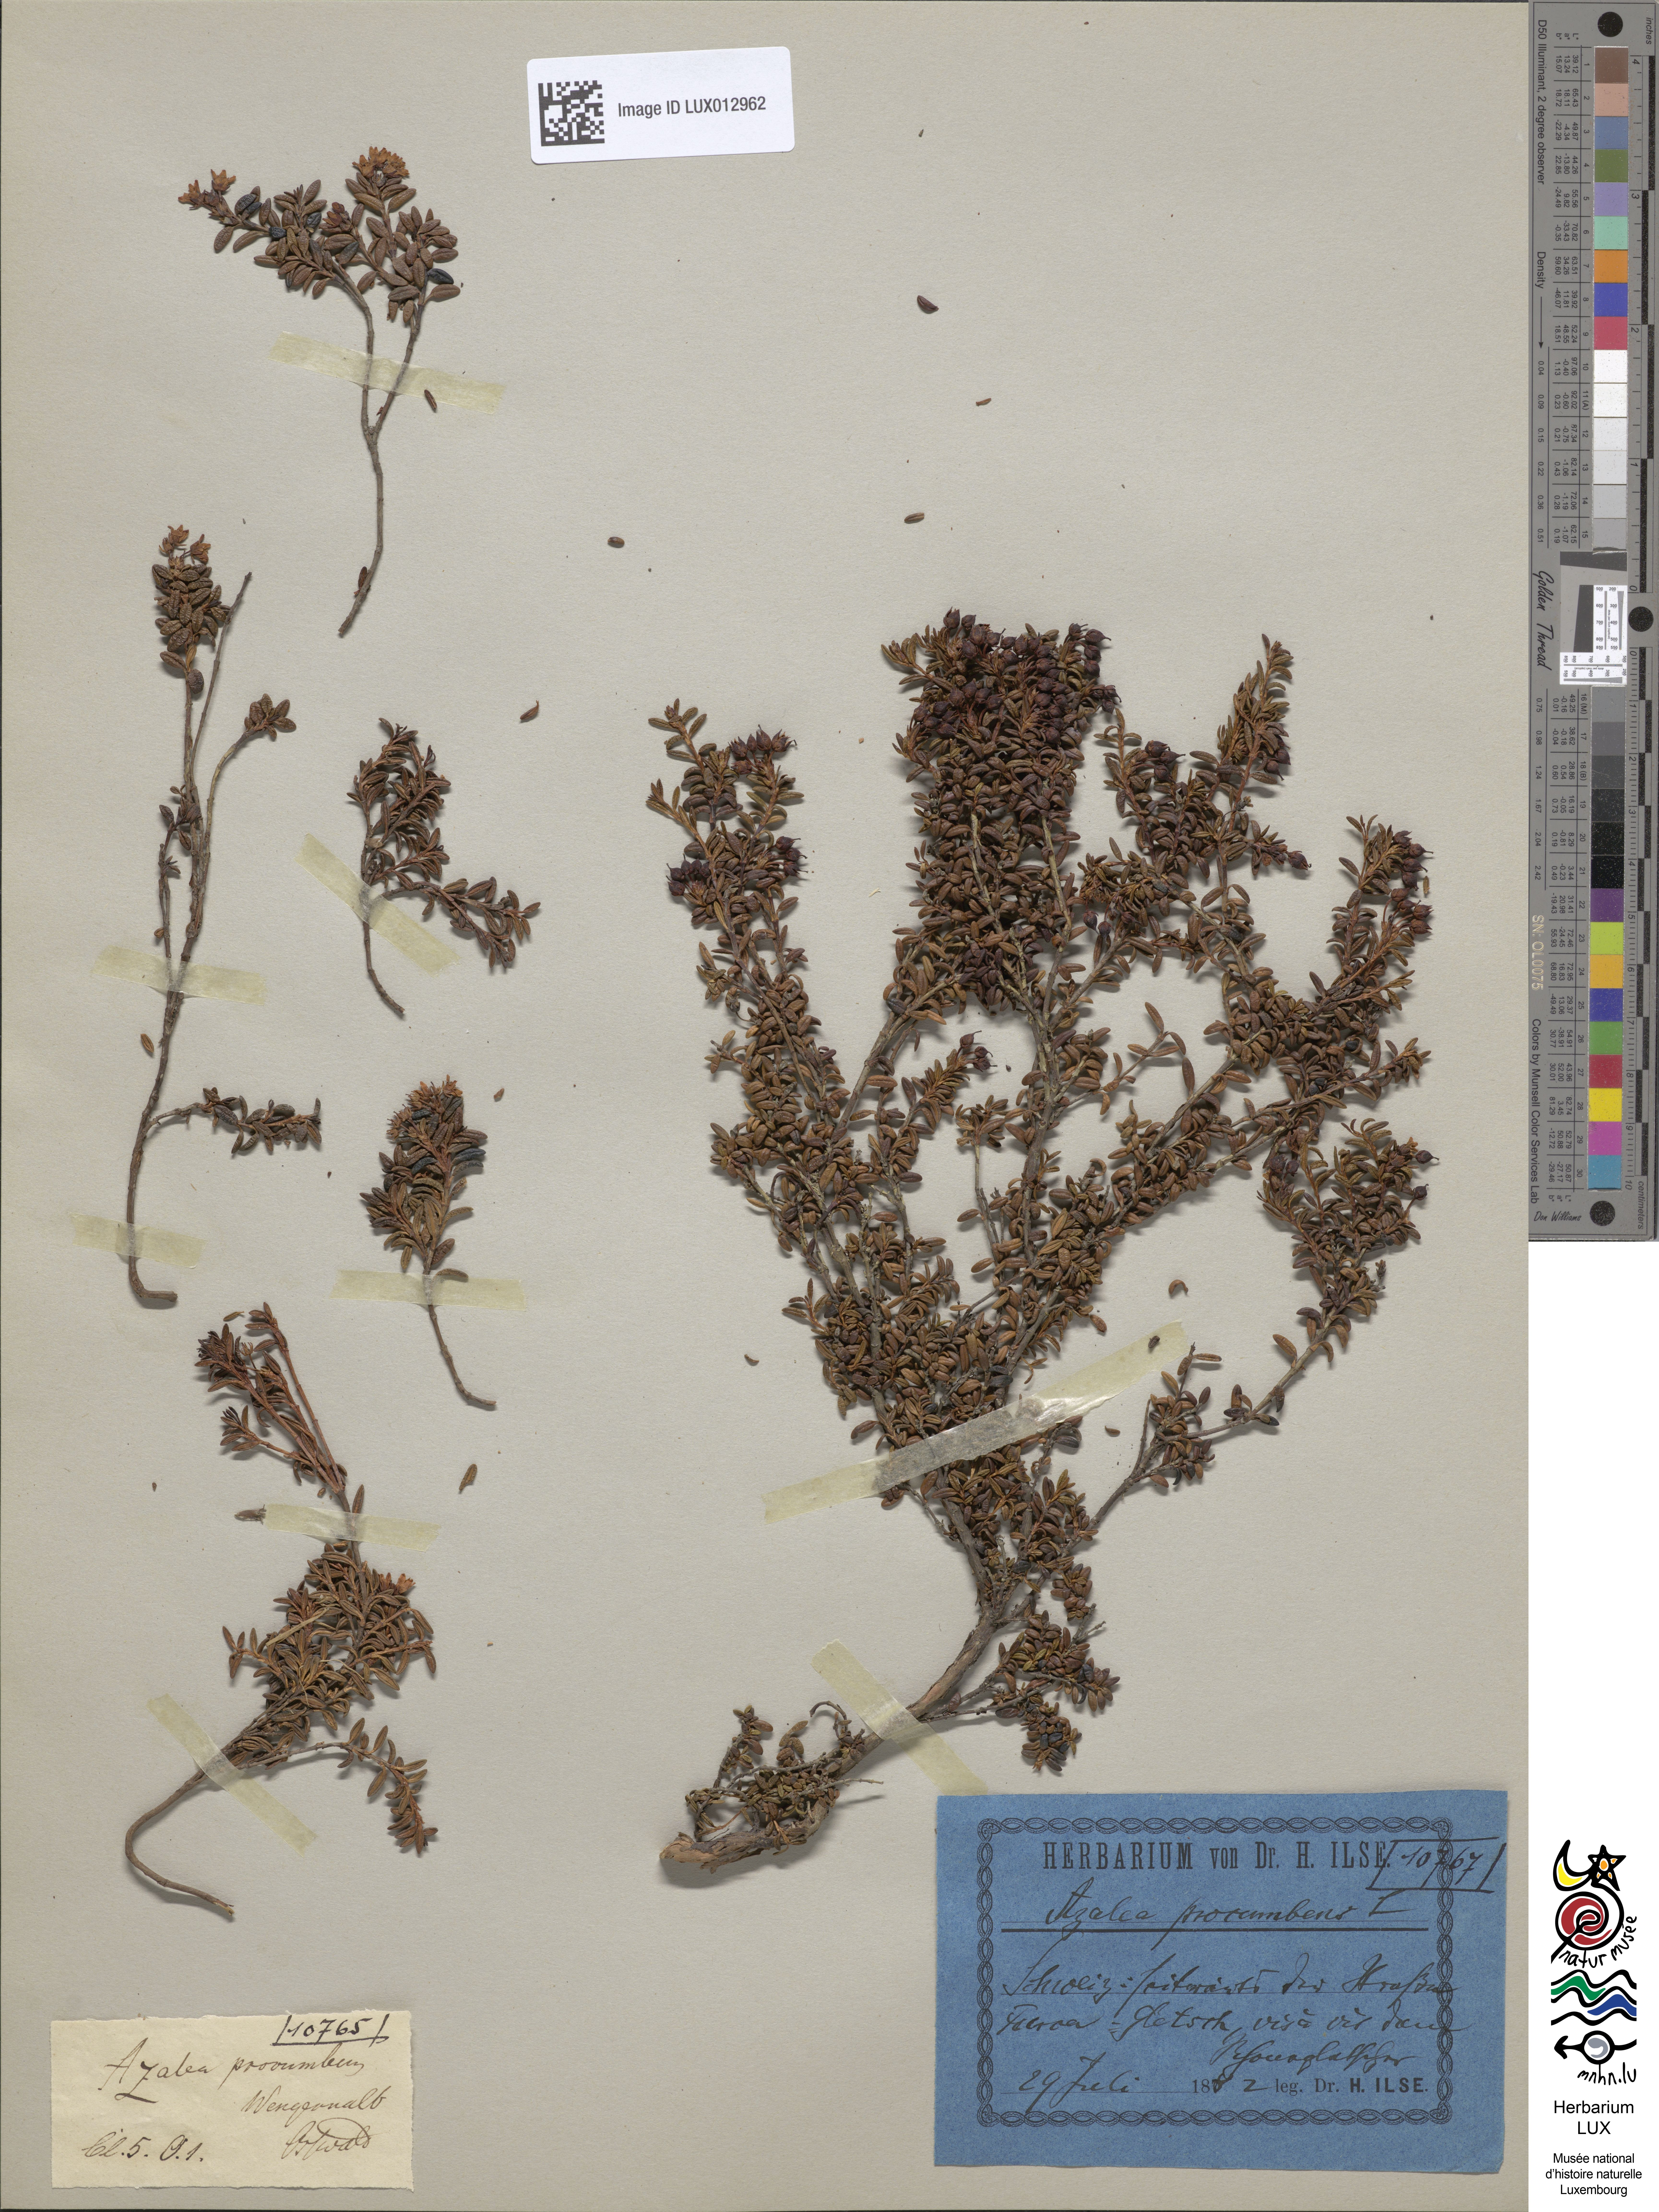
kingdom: Plantae
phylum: Tracheophyta
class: Magnoliopsida
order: Ericales
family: Ericaceae
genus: Kalmia
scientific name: Kalmia procumbens
